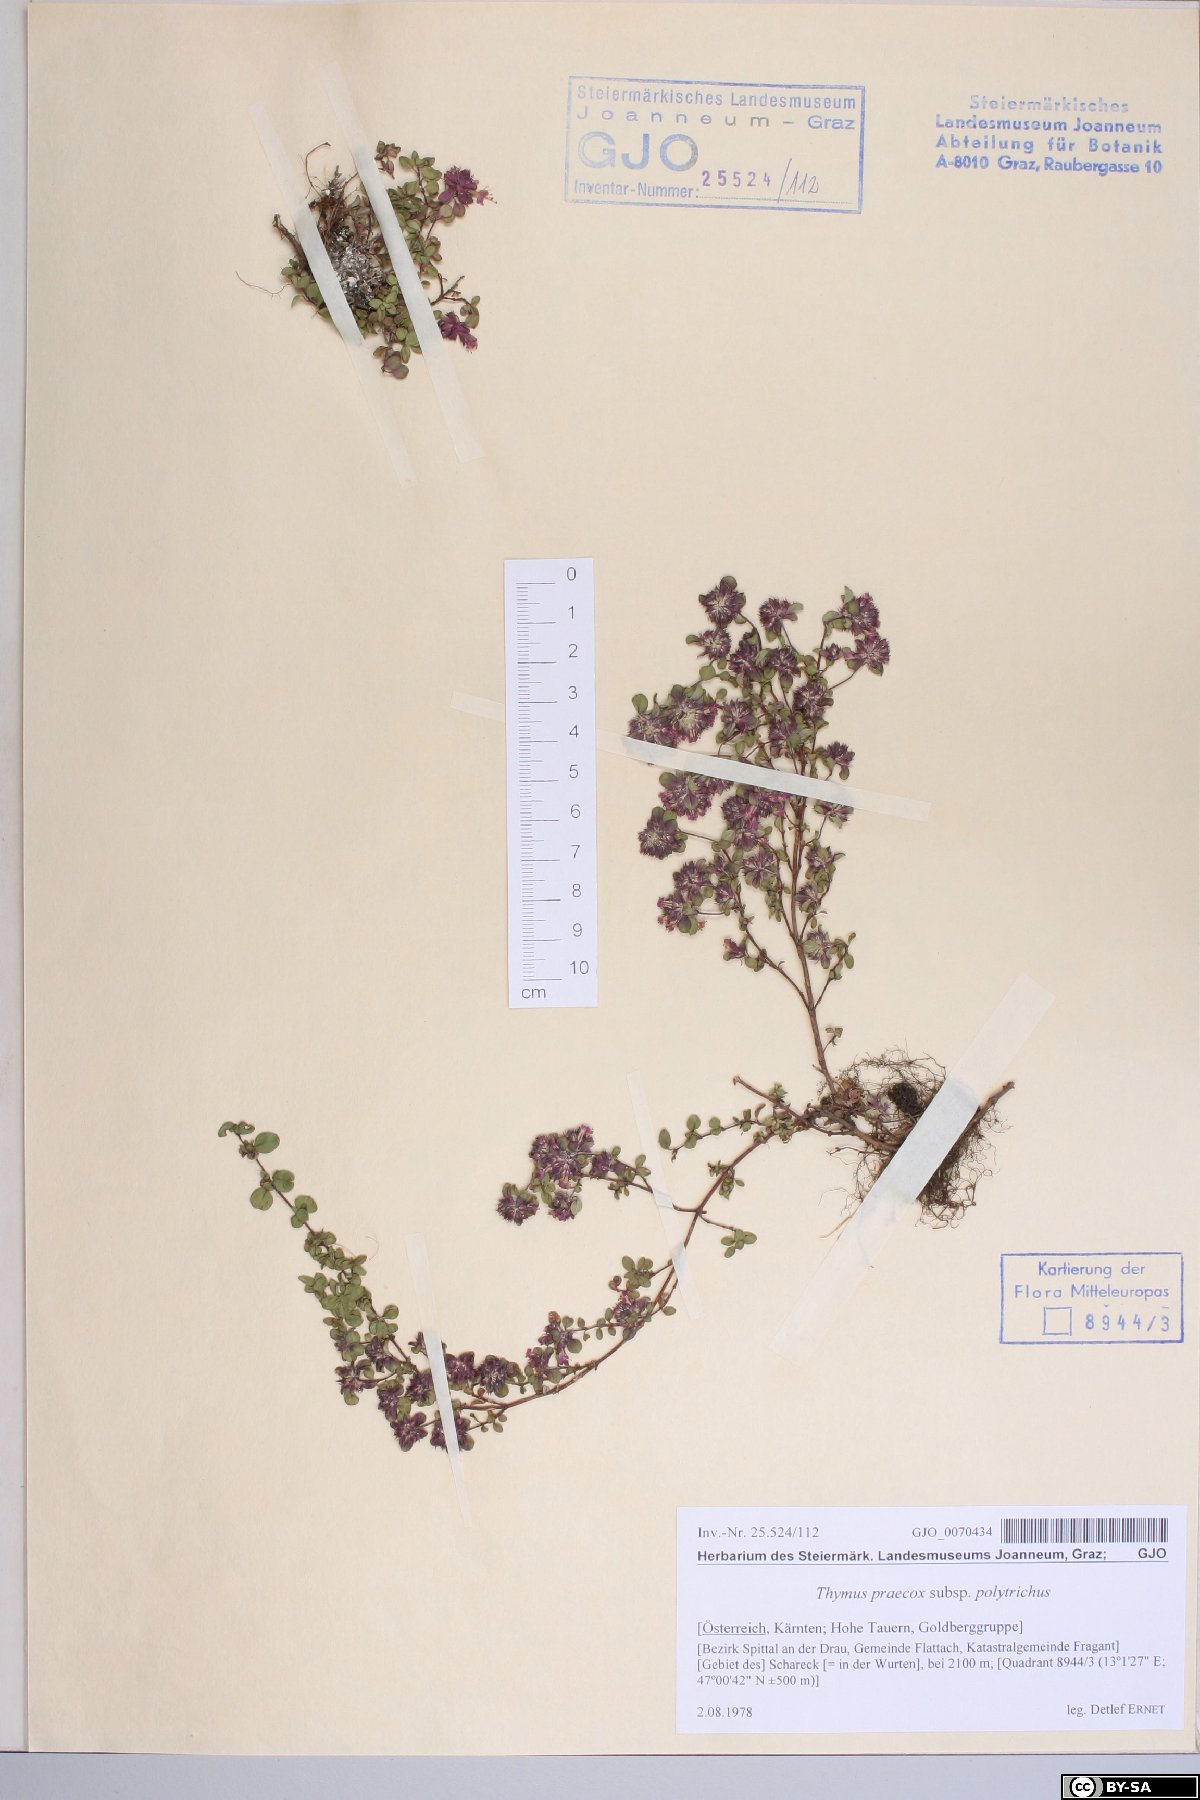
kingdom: Plantae
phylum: Tracheophyta
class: Magnoliopsida
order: Lamiales
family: Lamiaceae
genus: Thymus
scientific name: Thymus praecox
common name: Wild thyme
